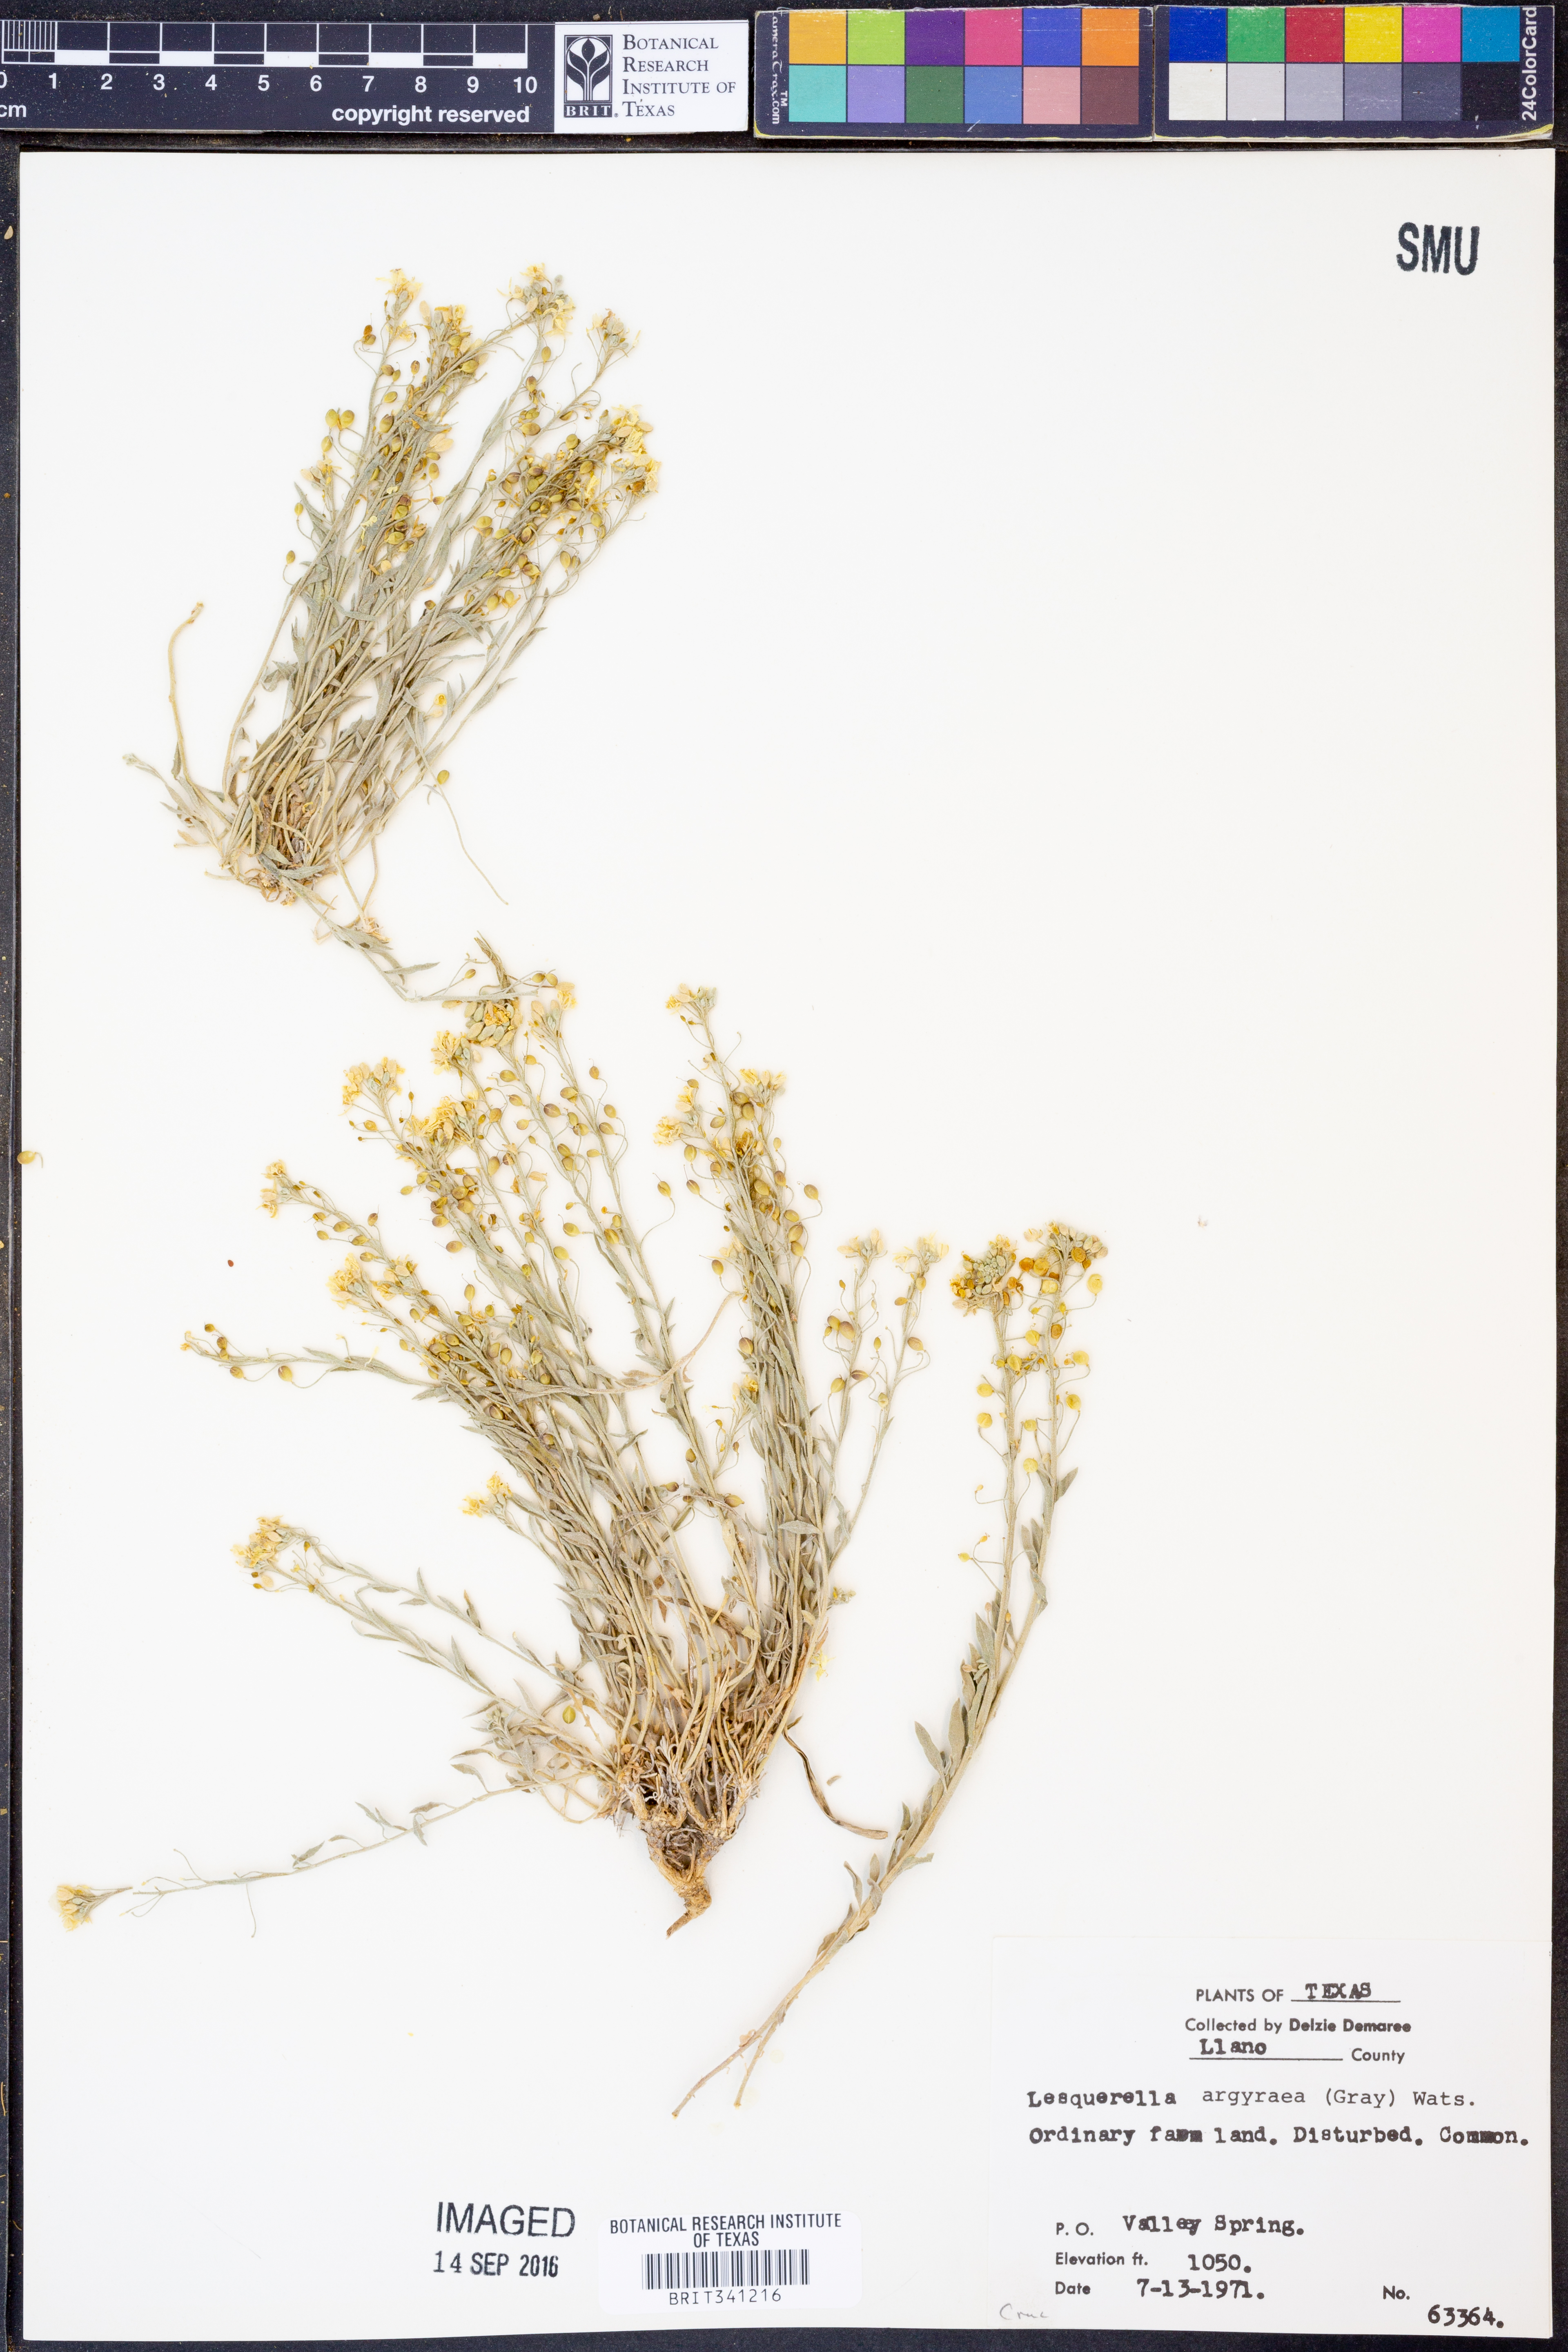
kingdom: Plantae
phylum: Tracheophyta
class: Magnoliopsida
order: Brassicales
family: Brassicaceae
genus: Physaria
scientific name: Physaria argyraea
